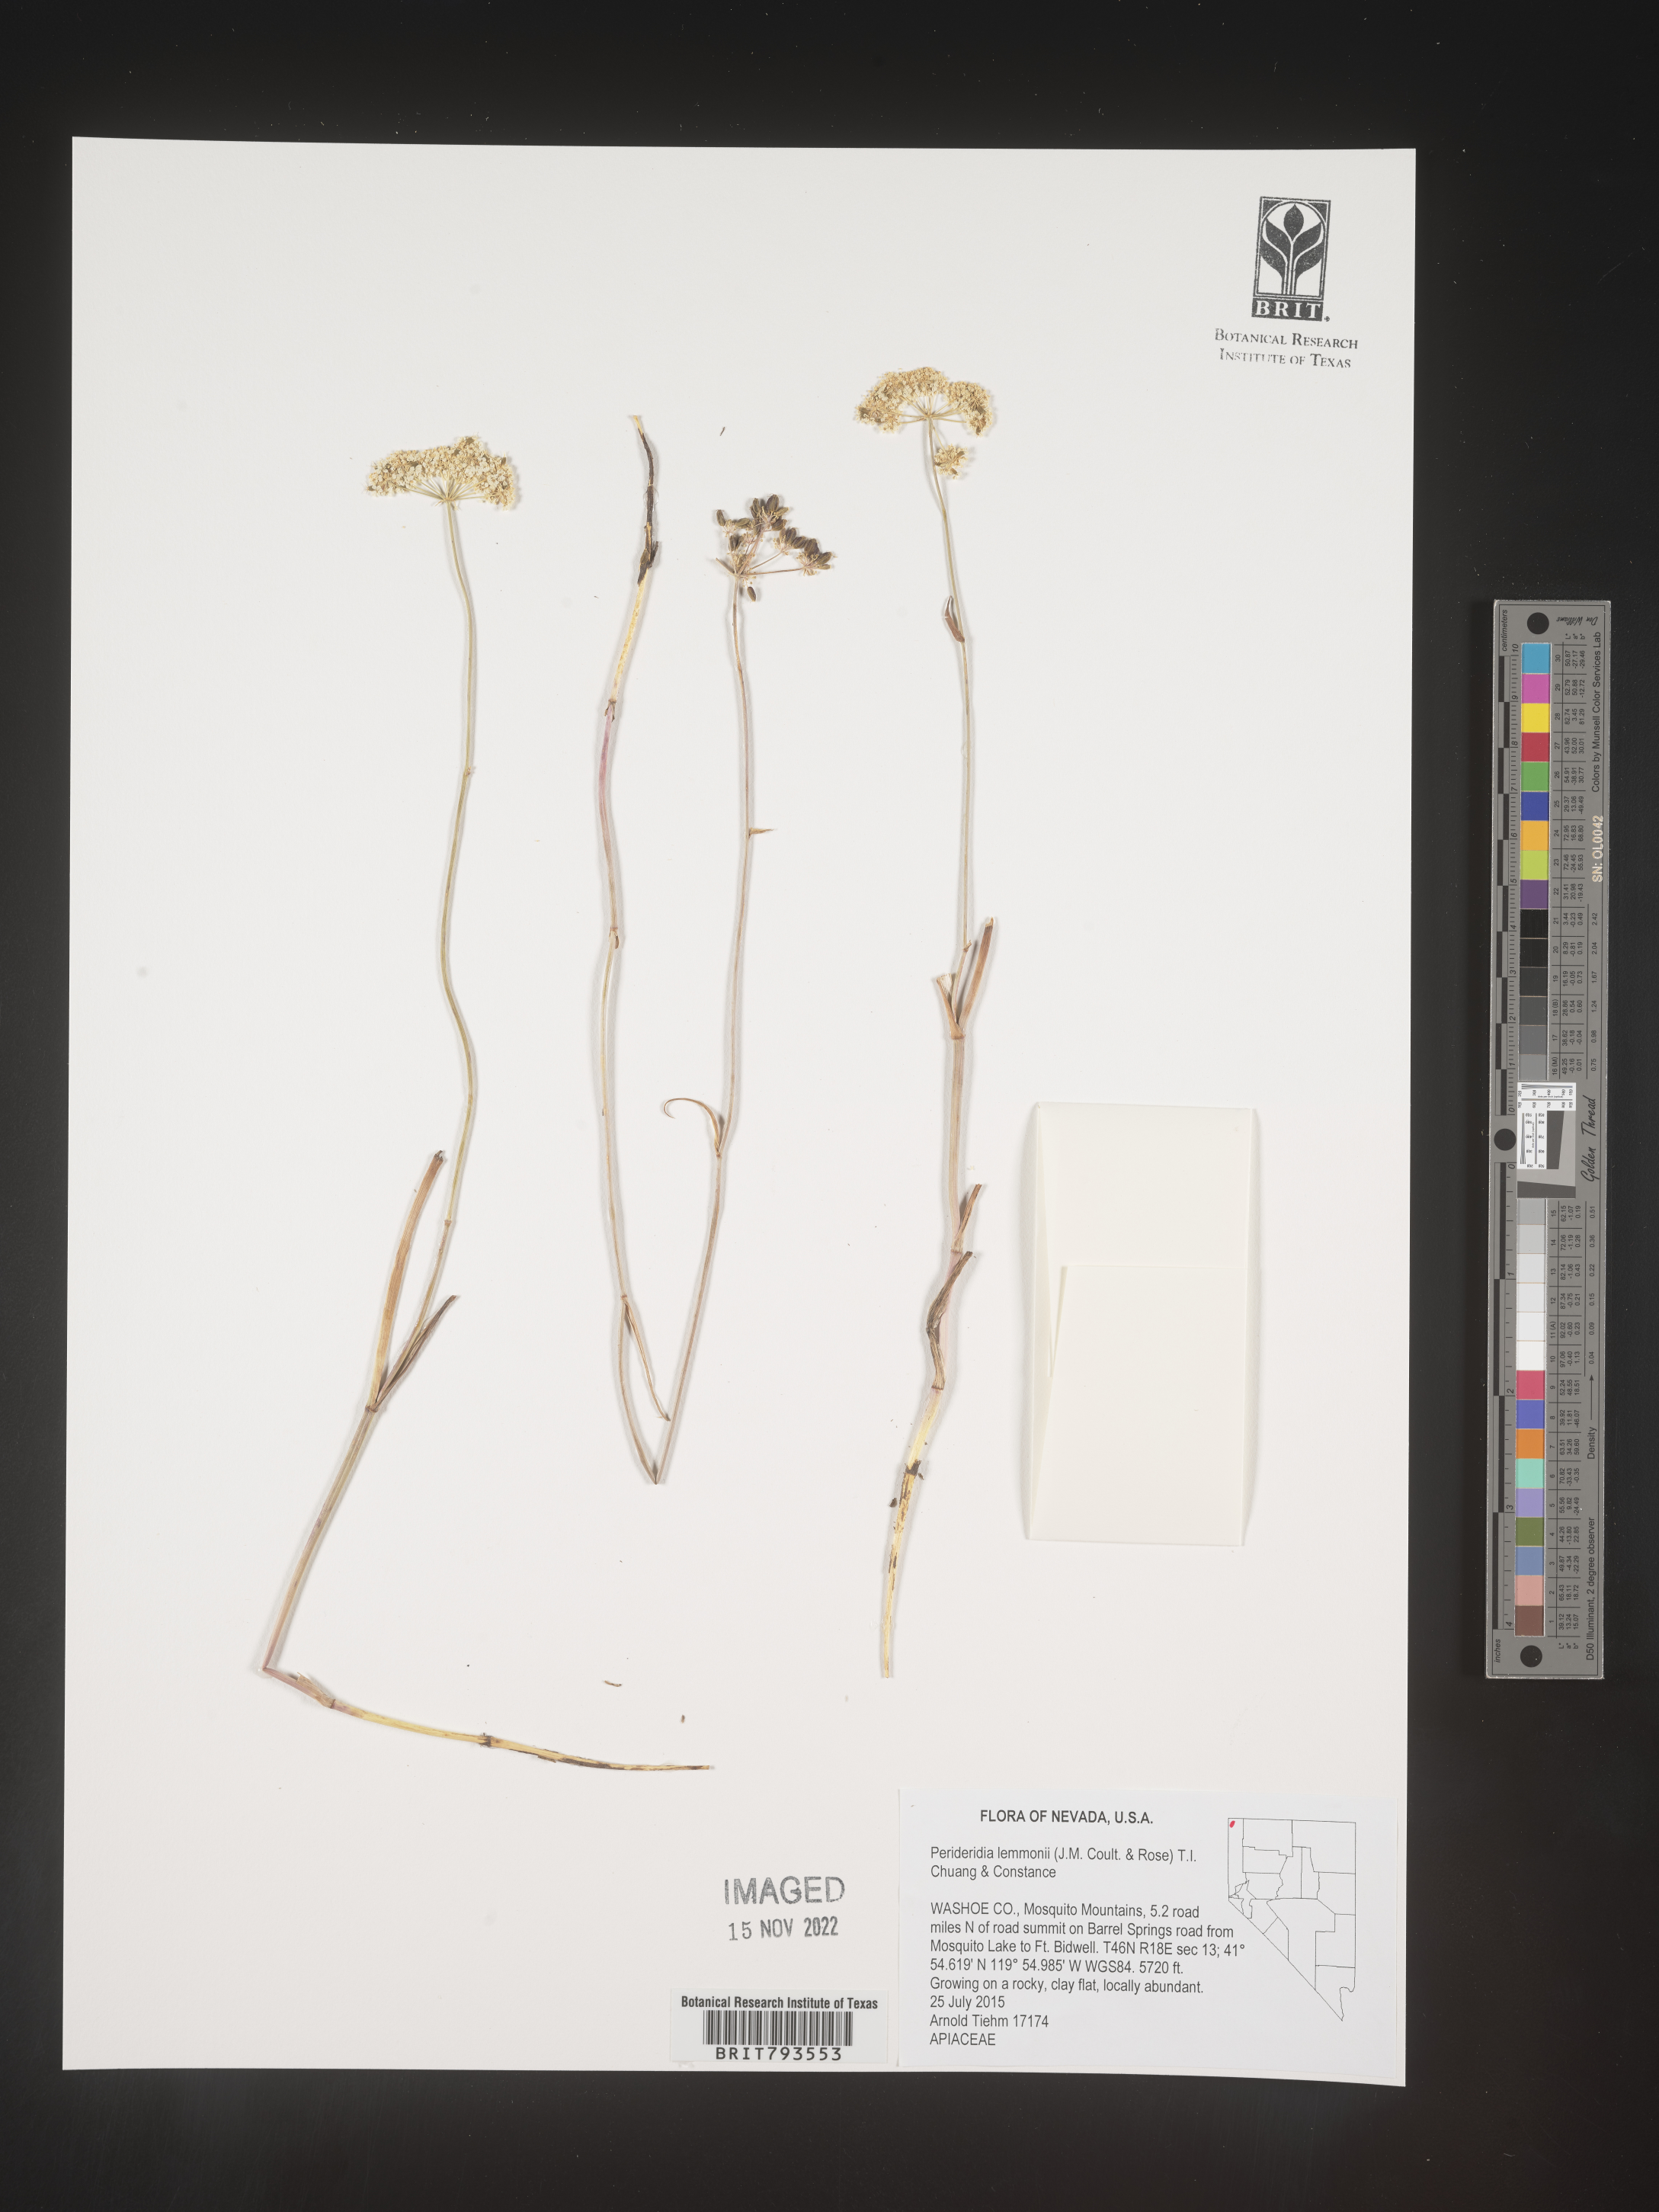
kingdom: Plantae
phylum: Tracheophyta
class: Magnoliopsida
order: Apiales
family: Apiaceae
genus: Perideridia
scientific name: Perideridia lemmonii
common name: Tuni
